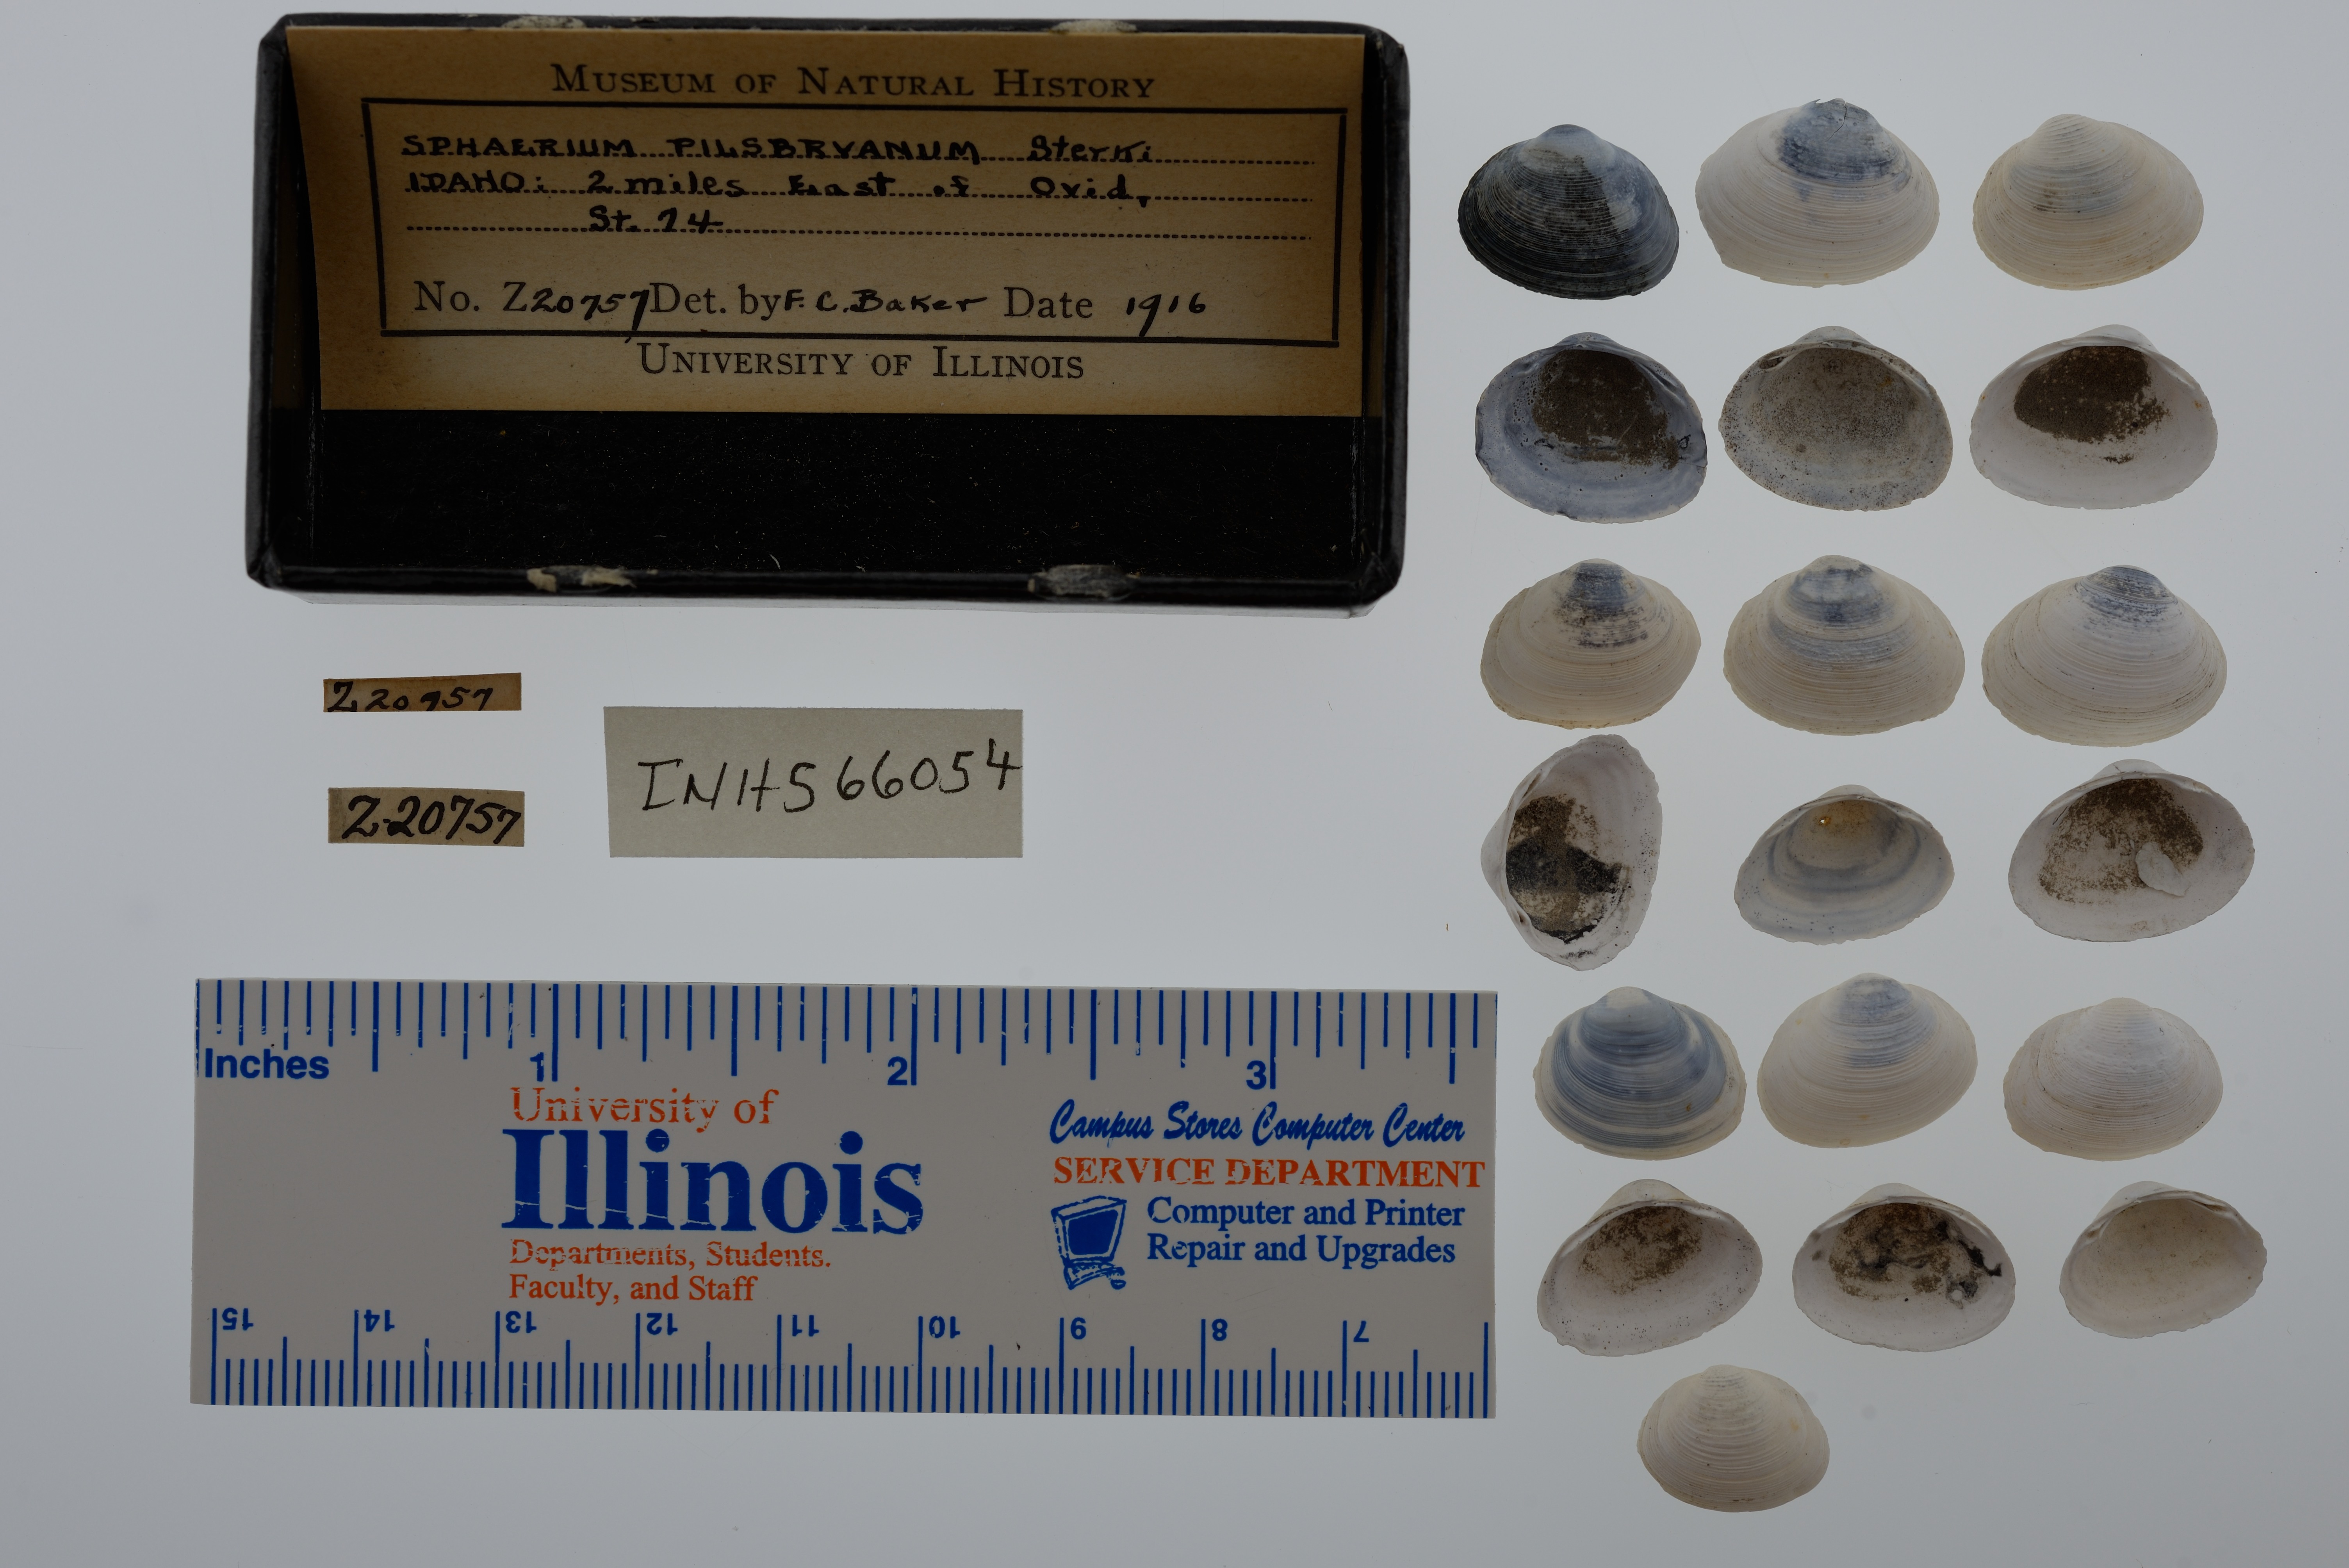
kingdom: Animalia
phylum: Mollusca
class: Bivalvia
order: Sphaeriida
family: Sphaeriidae
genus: Sphaerium
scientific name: Sphaerium striatinum
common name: Striated fingernailclam
